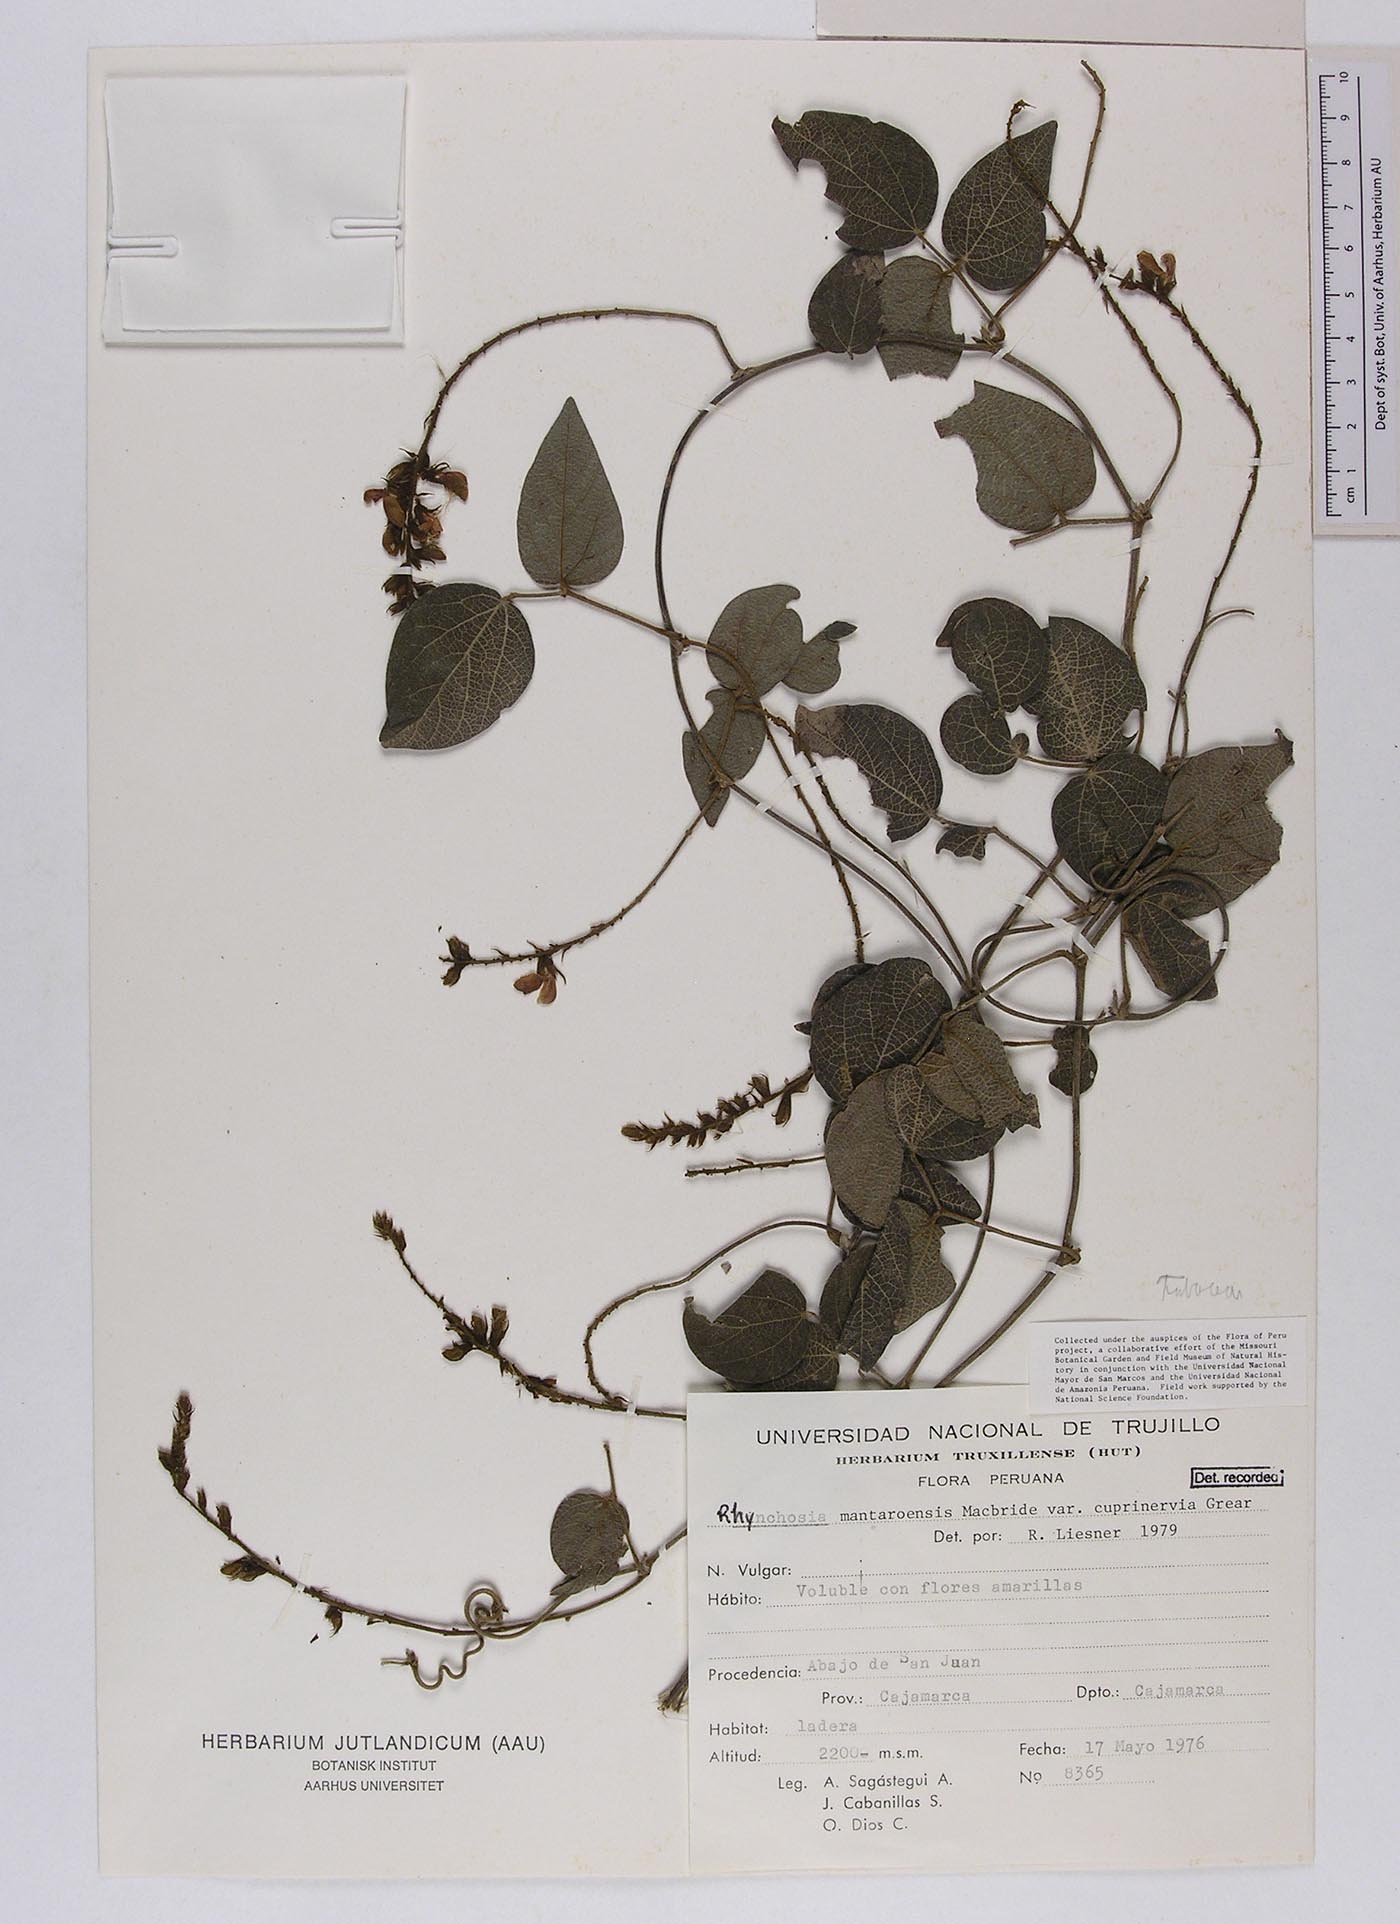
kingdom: Plantae
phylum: Tracheophyta
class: Magnoliopsida
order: Fabales
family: Fabaceae
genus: Rhynchosia
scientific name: Rhynchosia mantaroensis
